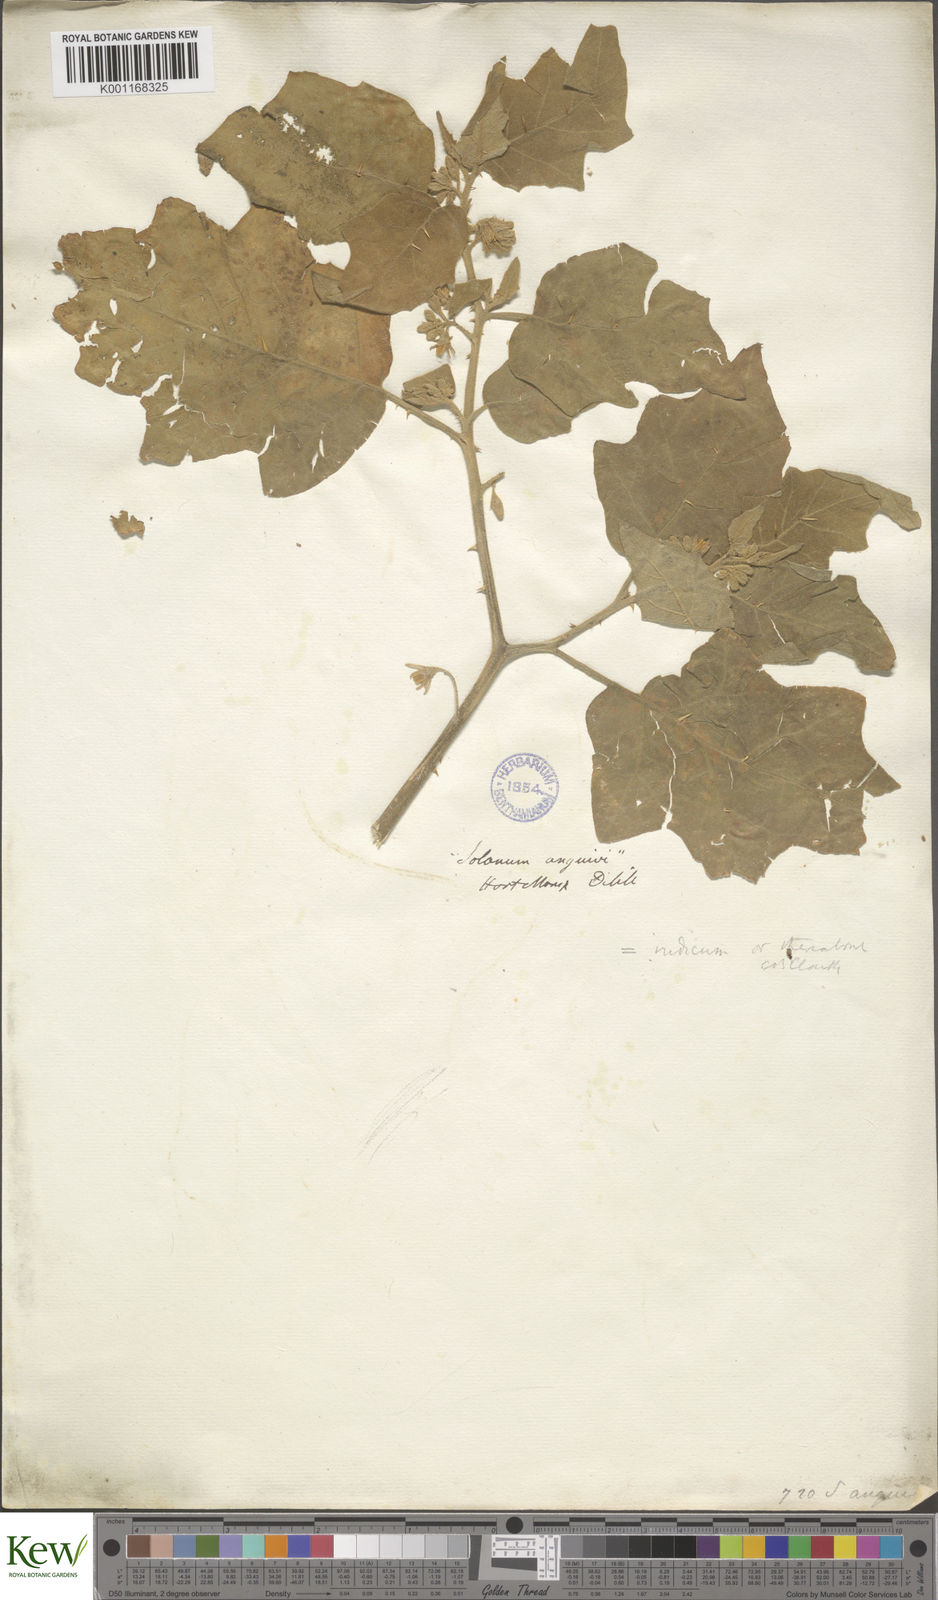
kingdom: Plantae
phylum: Tracheophyta
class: Magnoliopsida
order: Solanales
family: Solanaceae
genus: Solanum
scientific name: Solanum anguivi
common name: Forest bitterberry
